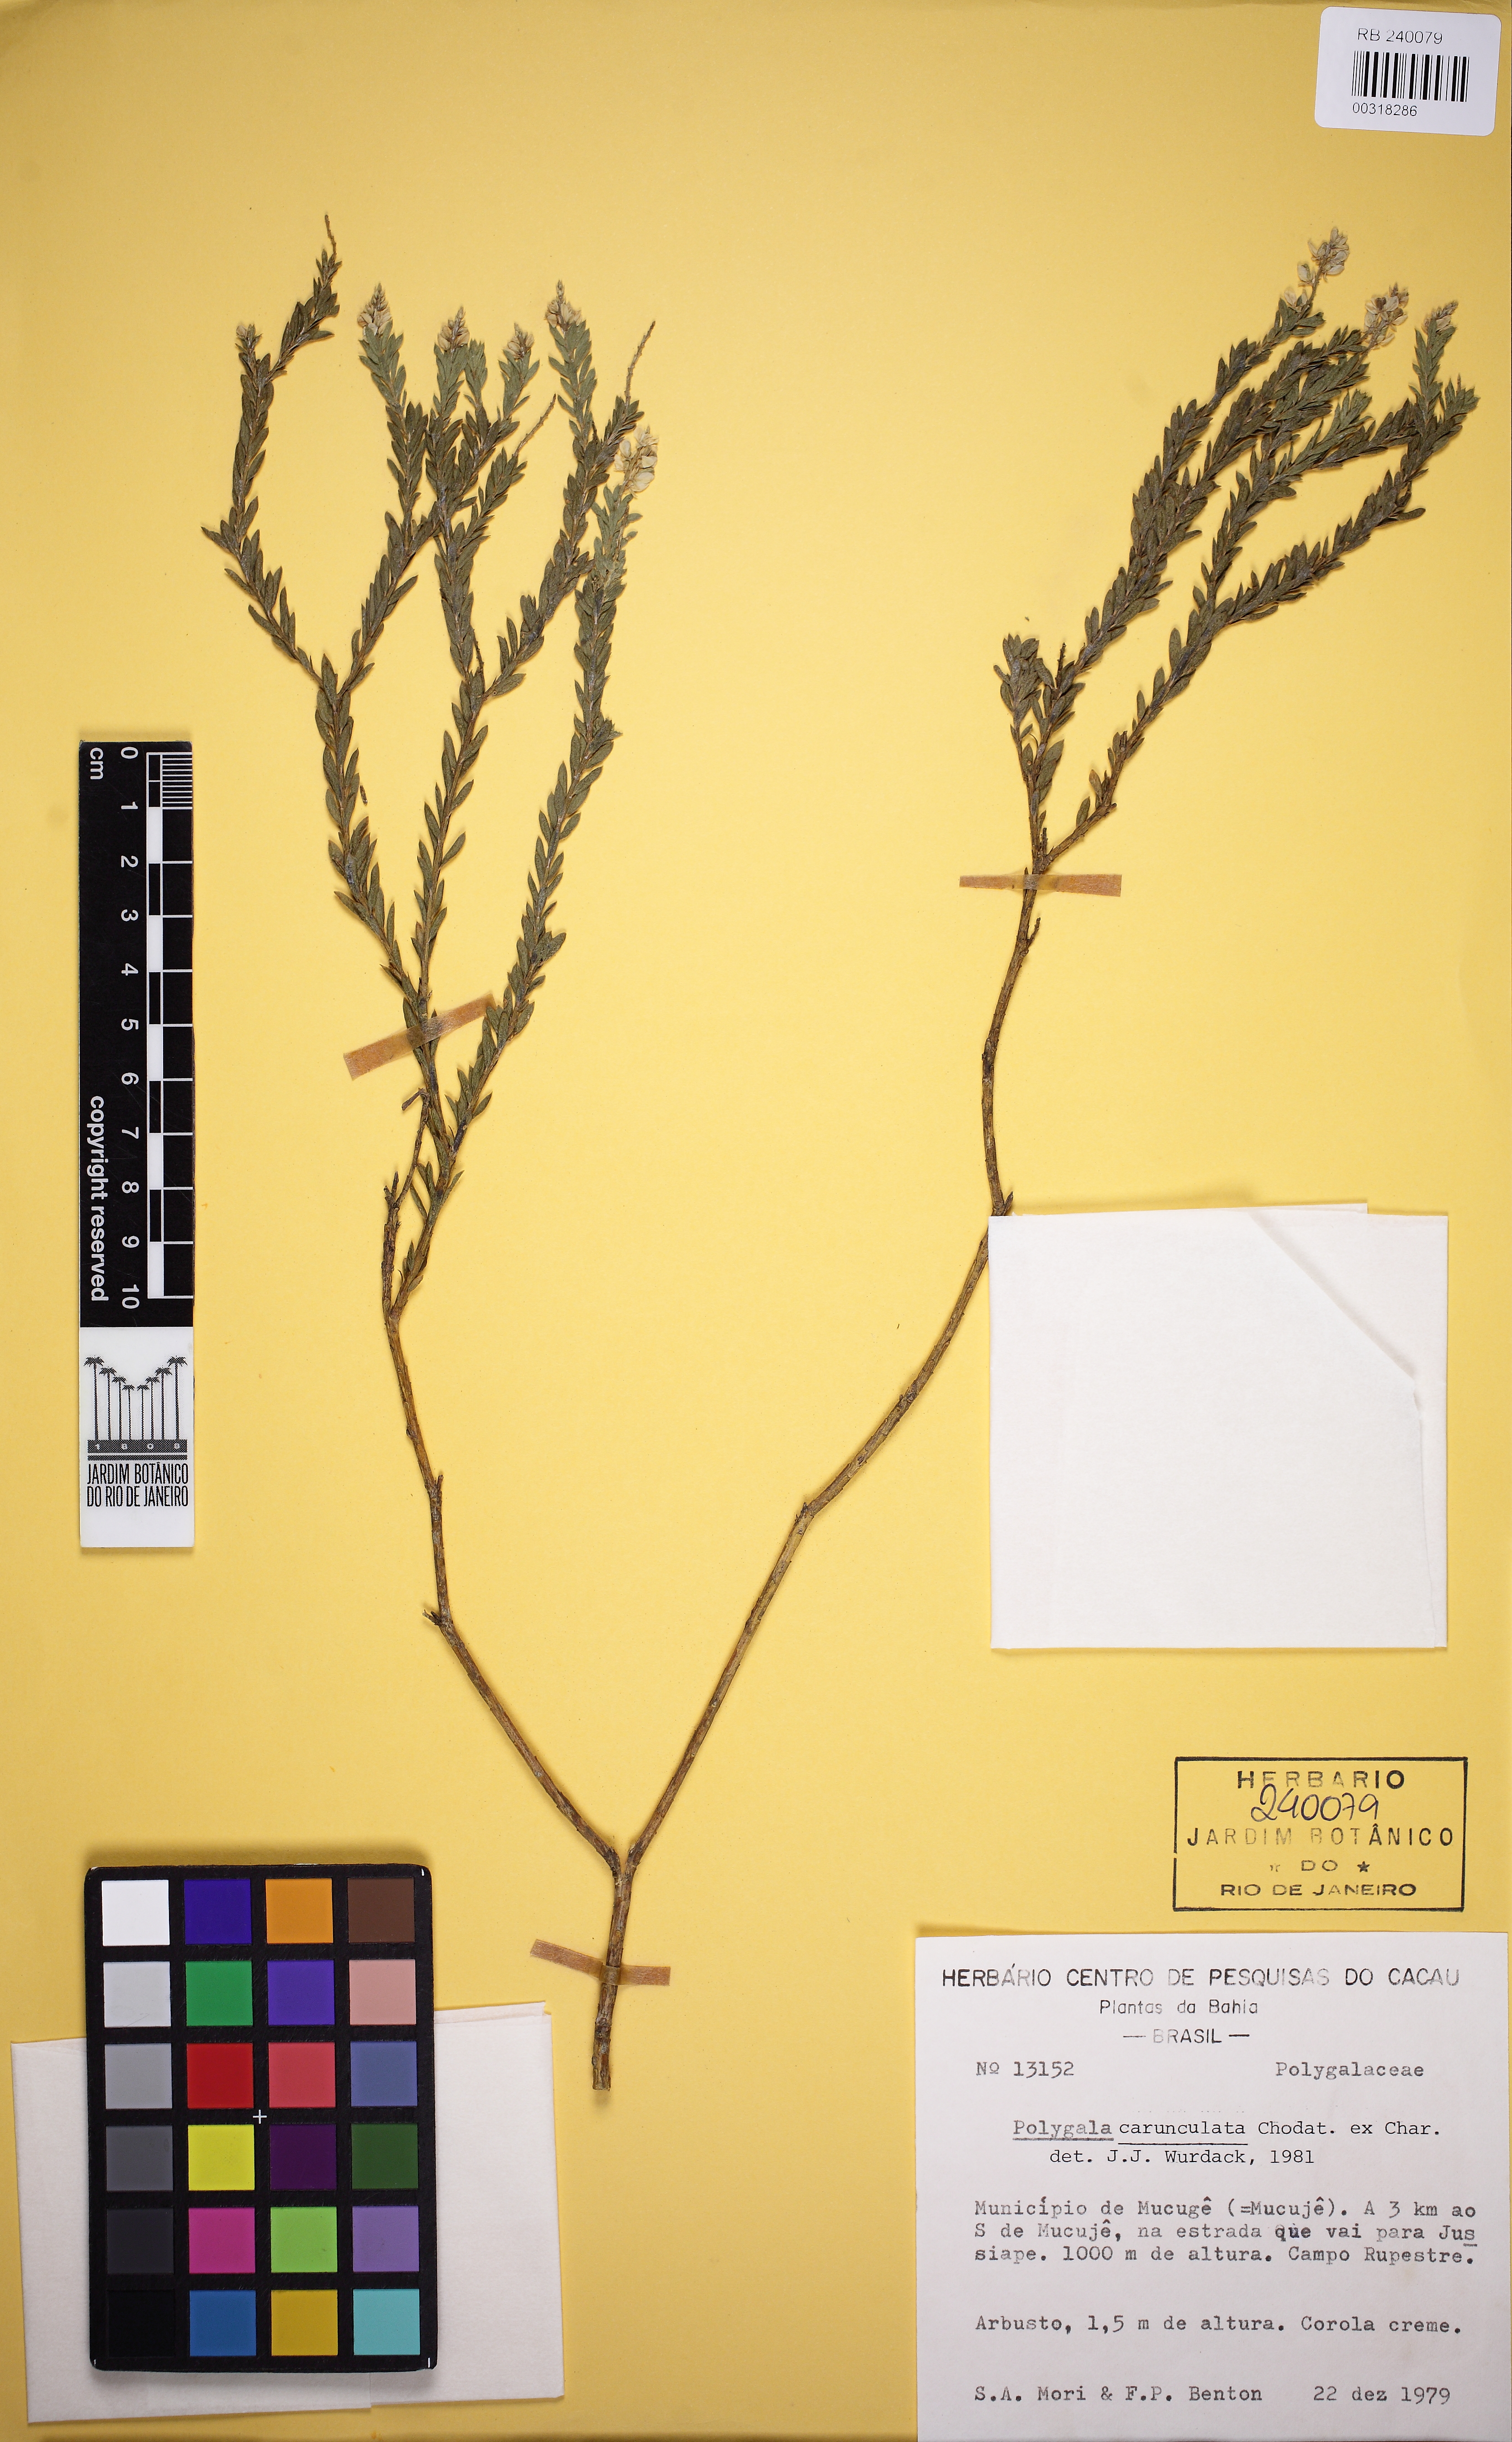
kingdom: Plantae
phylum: Tracheophyta
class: Magnoliopsida
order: Fabales
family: Polygalaceae
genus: Polygala
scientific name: Polygala tuberculata
